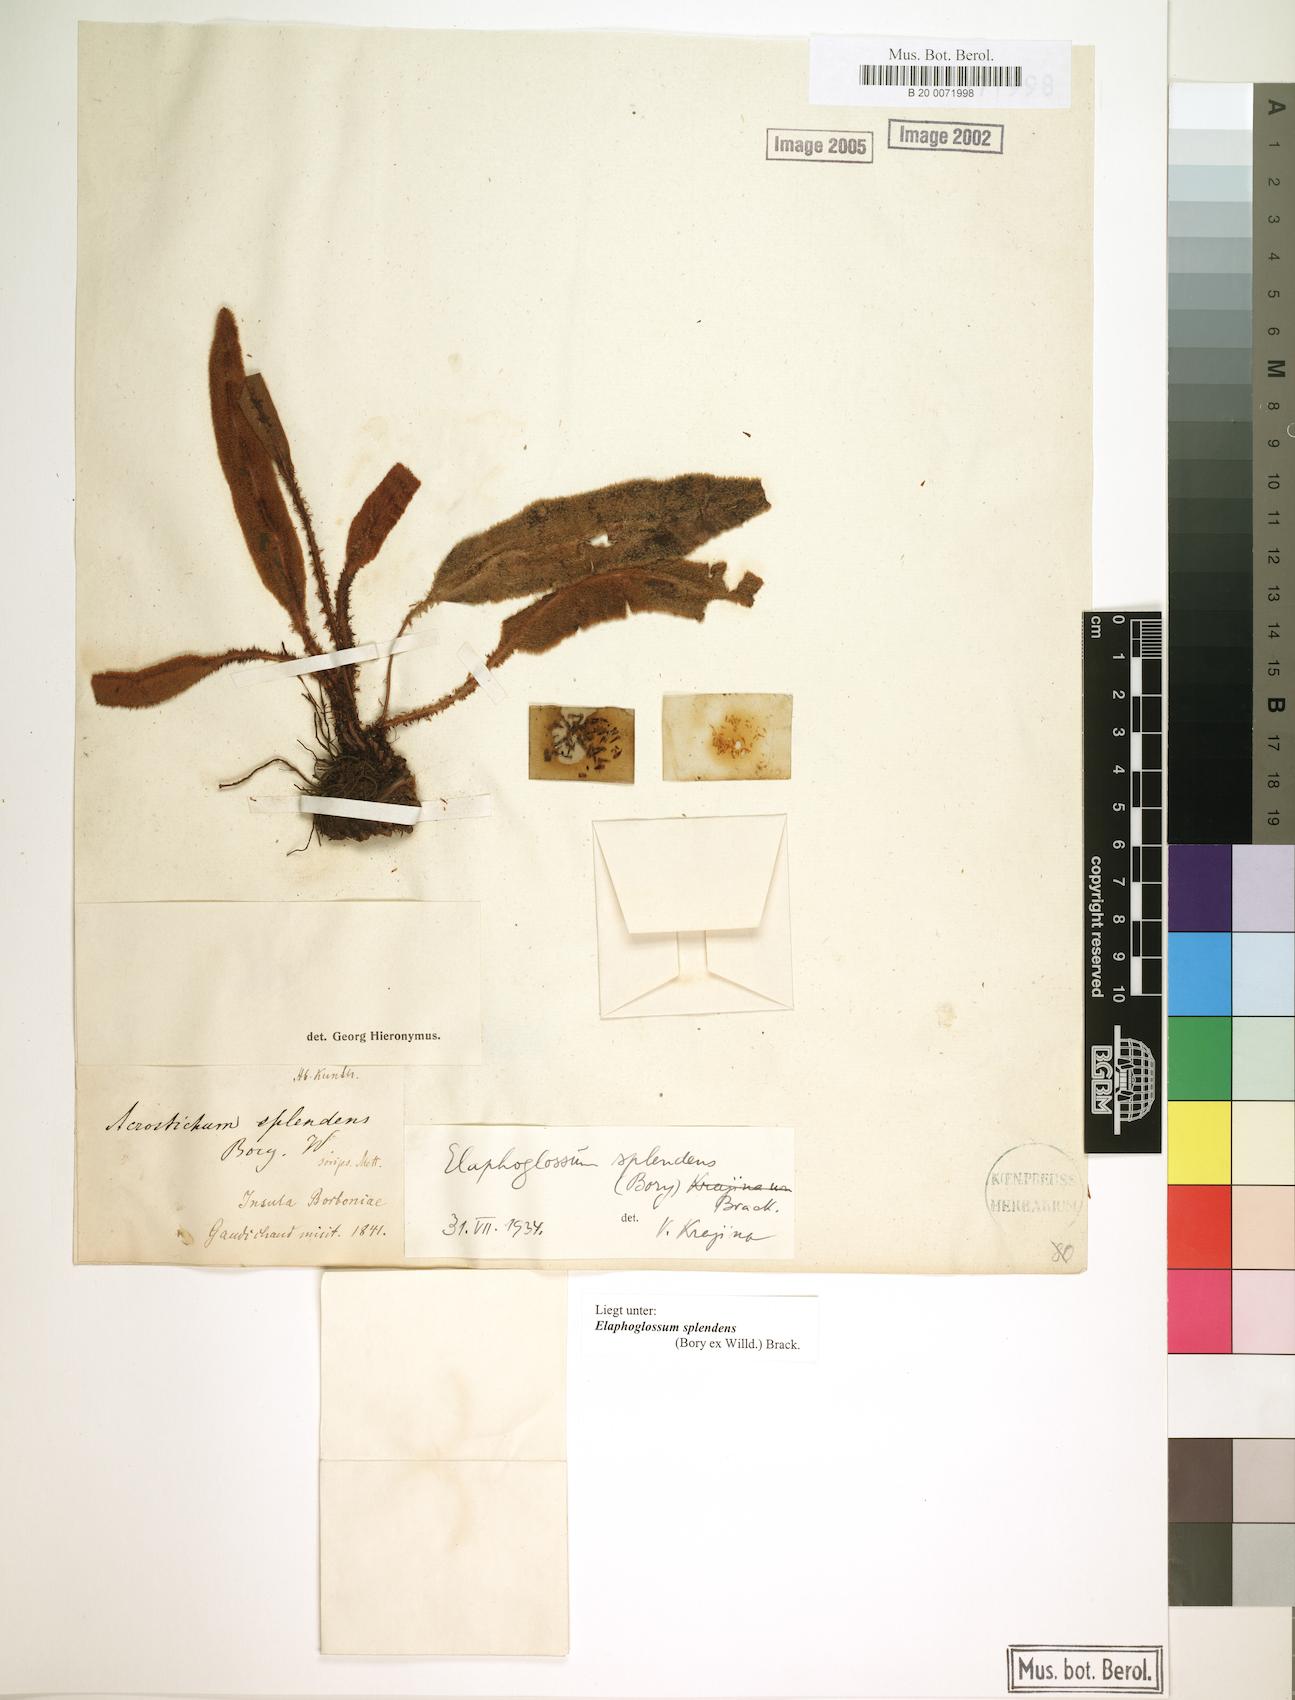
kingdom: Plantae
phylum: Tracheophyta
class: Polypodiopsida
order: Polypodiales
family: Dryopteridaceae
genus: Elaphoglossum
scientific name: Elaphoglossum splendens
